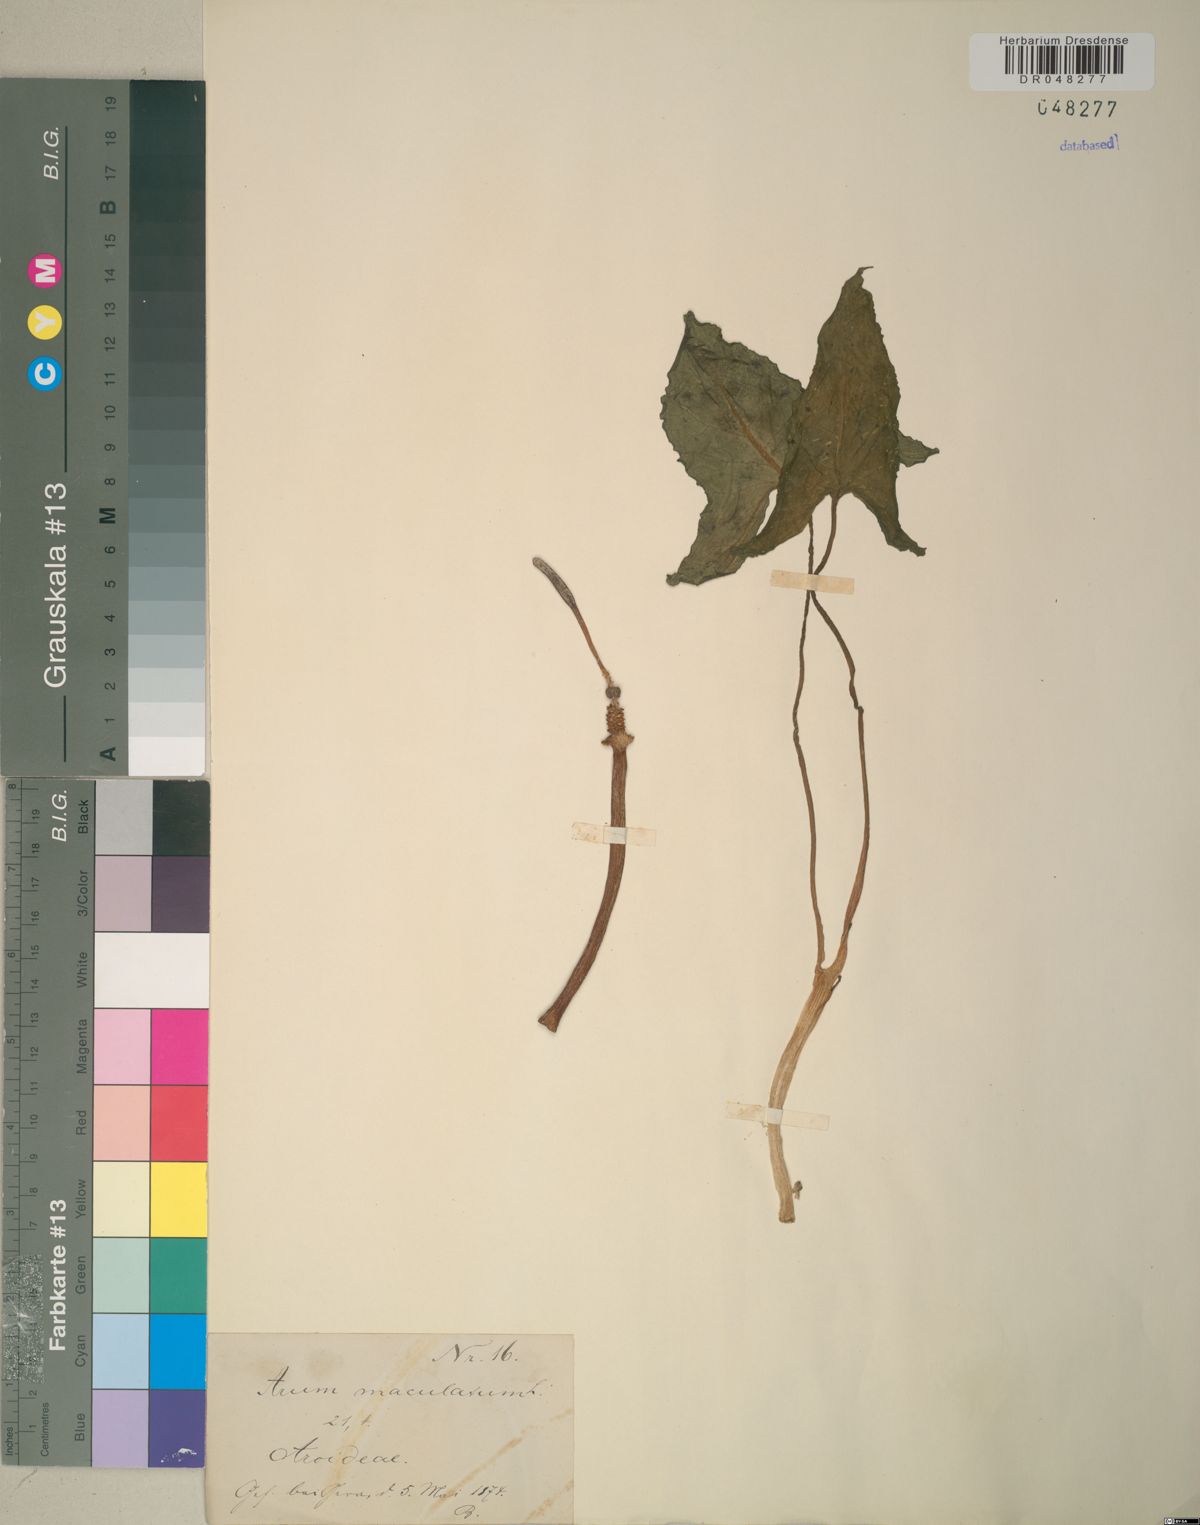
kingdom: Plantae
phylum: Tracheophyta
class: Liliopsida
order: Alismatales
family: Araceae
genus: Arum
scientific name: Arum maculatum
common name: Lords-and-ladies
